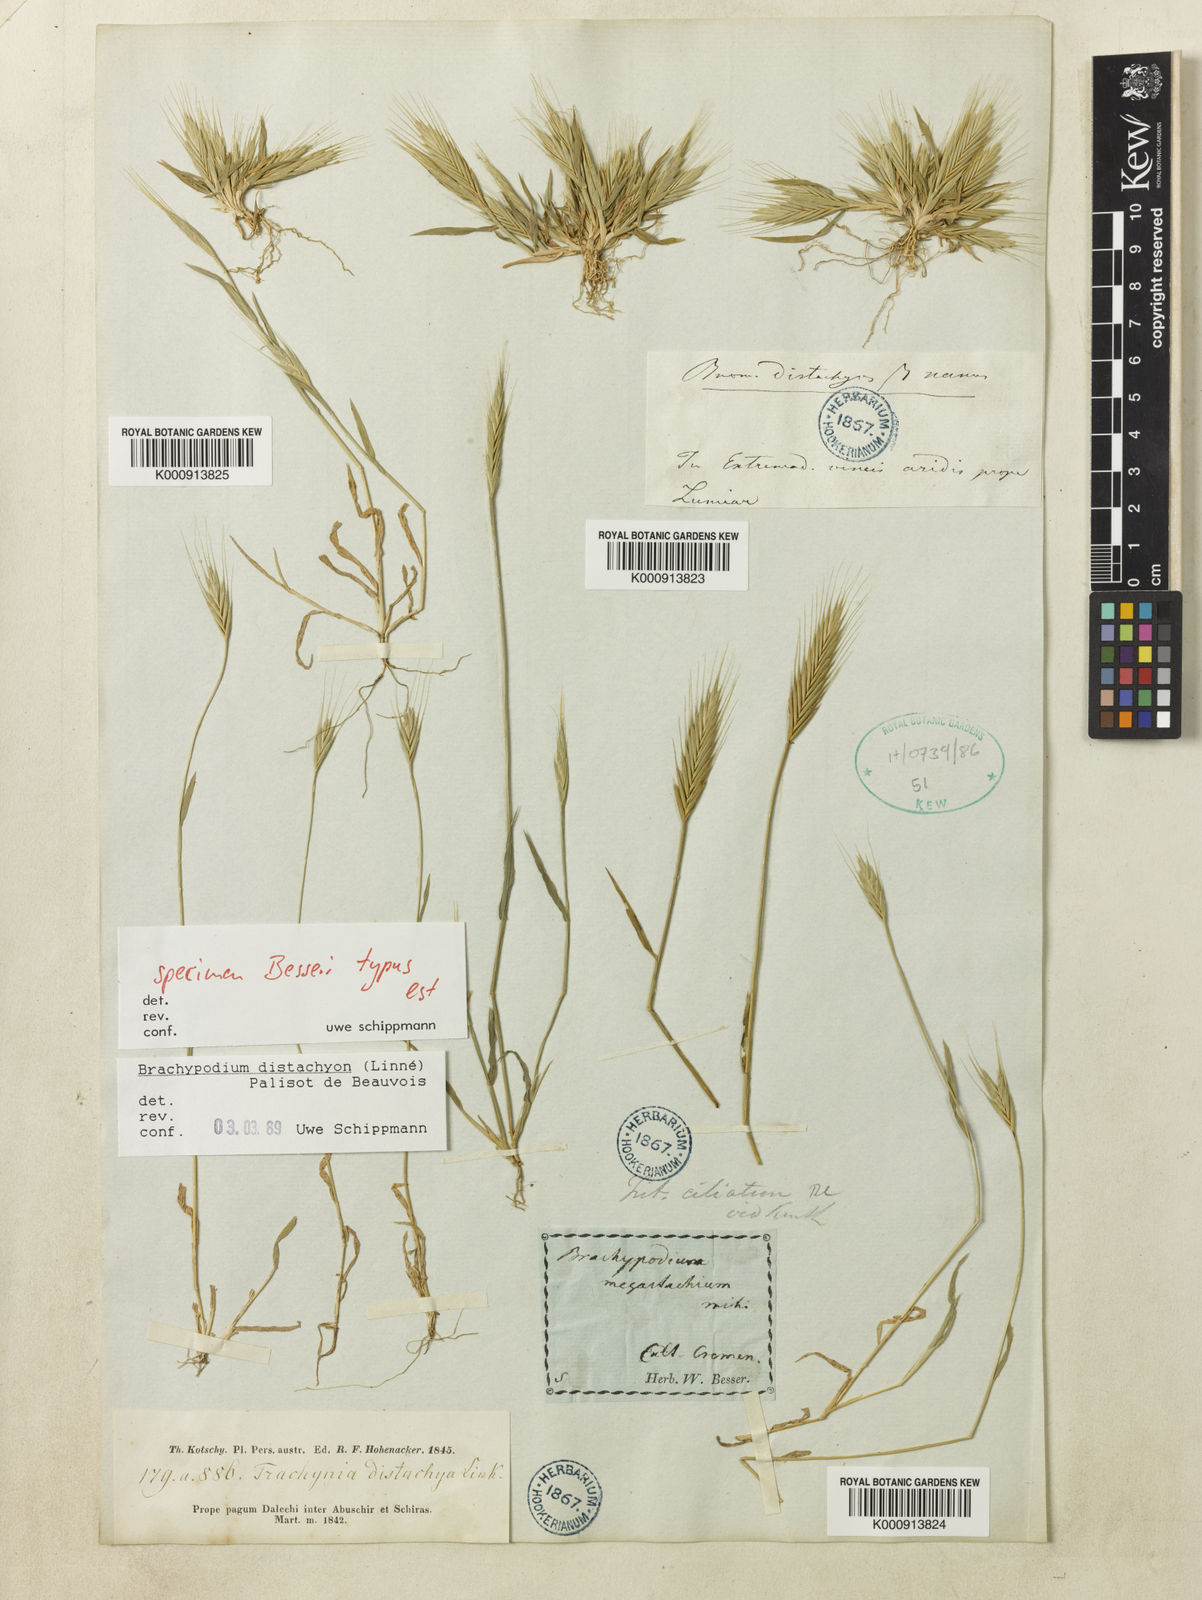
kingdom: Plantae
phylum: Tracheophyta
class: Liliopsida
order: Poales
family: Poaceae
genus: Brachypodium
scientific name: Brachypodium distachyon
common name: Stiff brome
